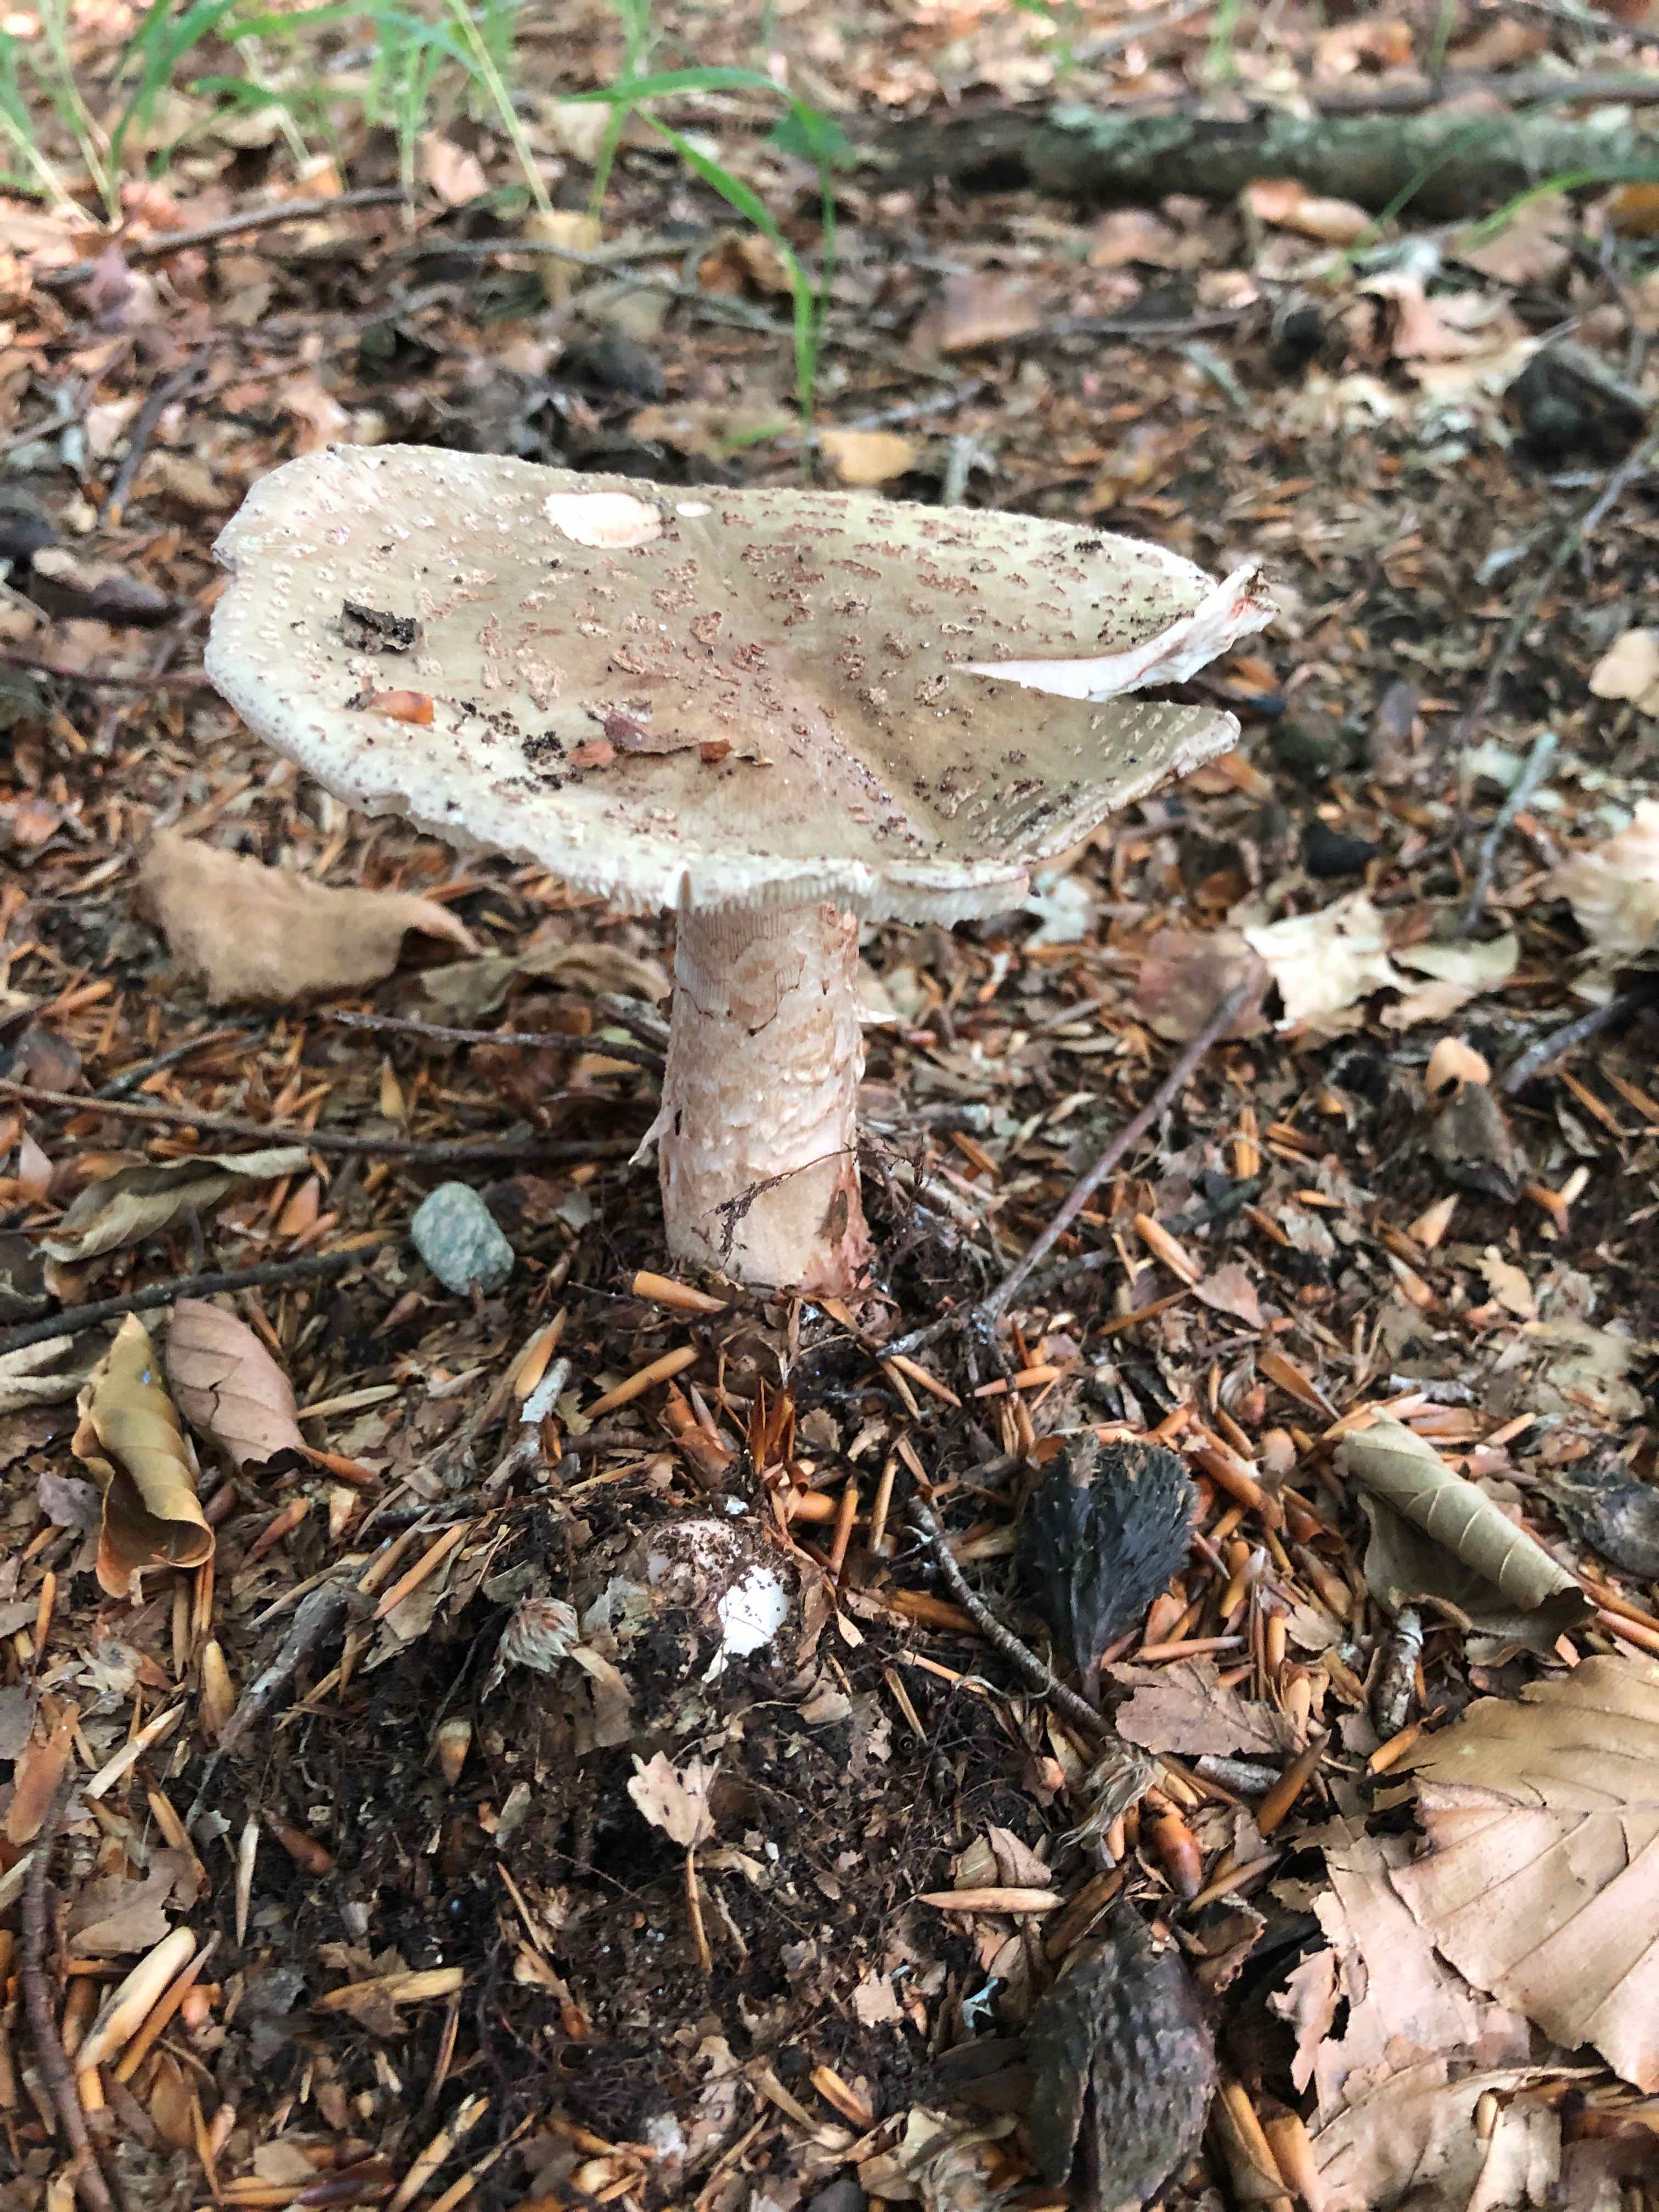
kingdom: Fungi
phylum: Basidiomycota
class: Agaricomycetes
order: Agaricales
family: Amanitaceae
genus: Amanita
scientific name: Amanita rubescens
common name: rødmende fluesvamp
